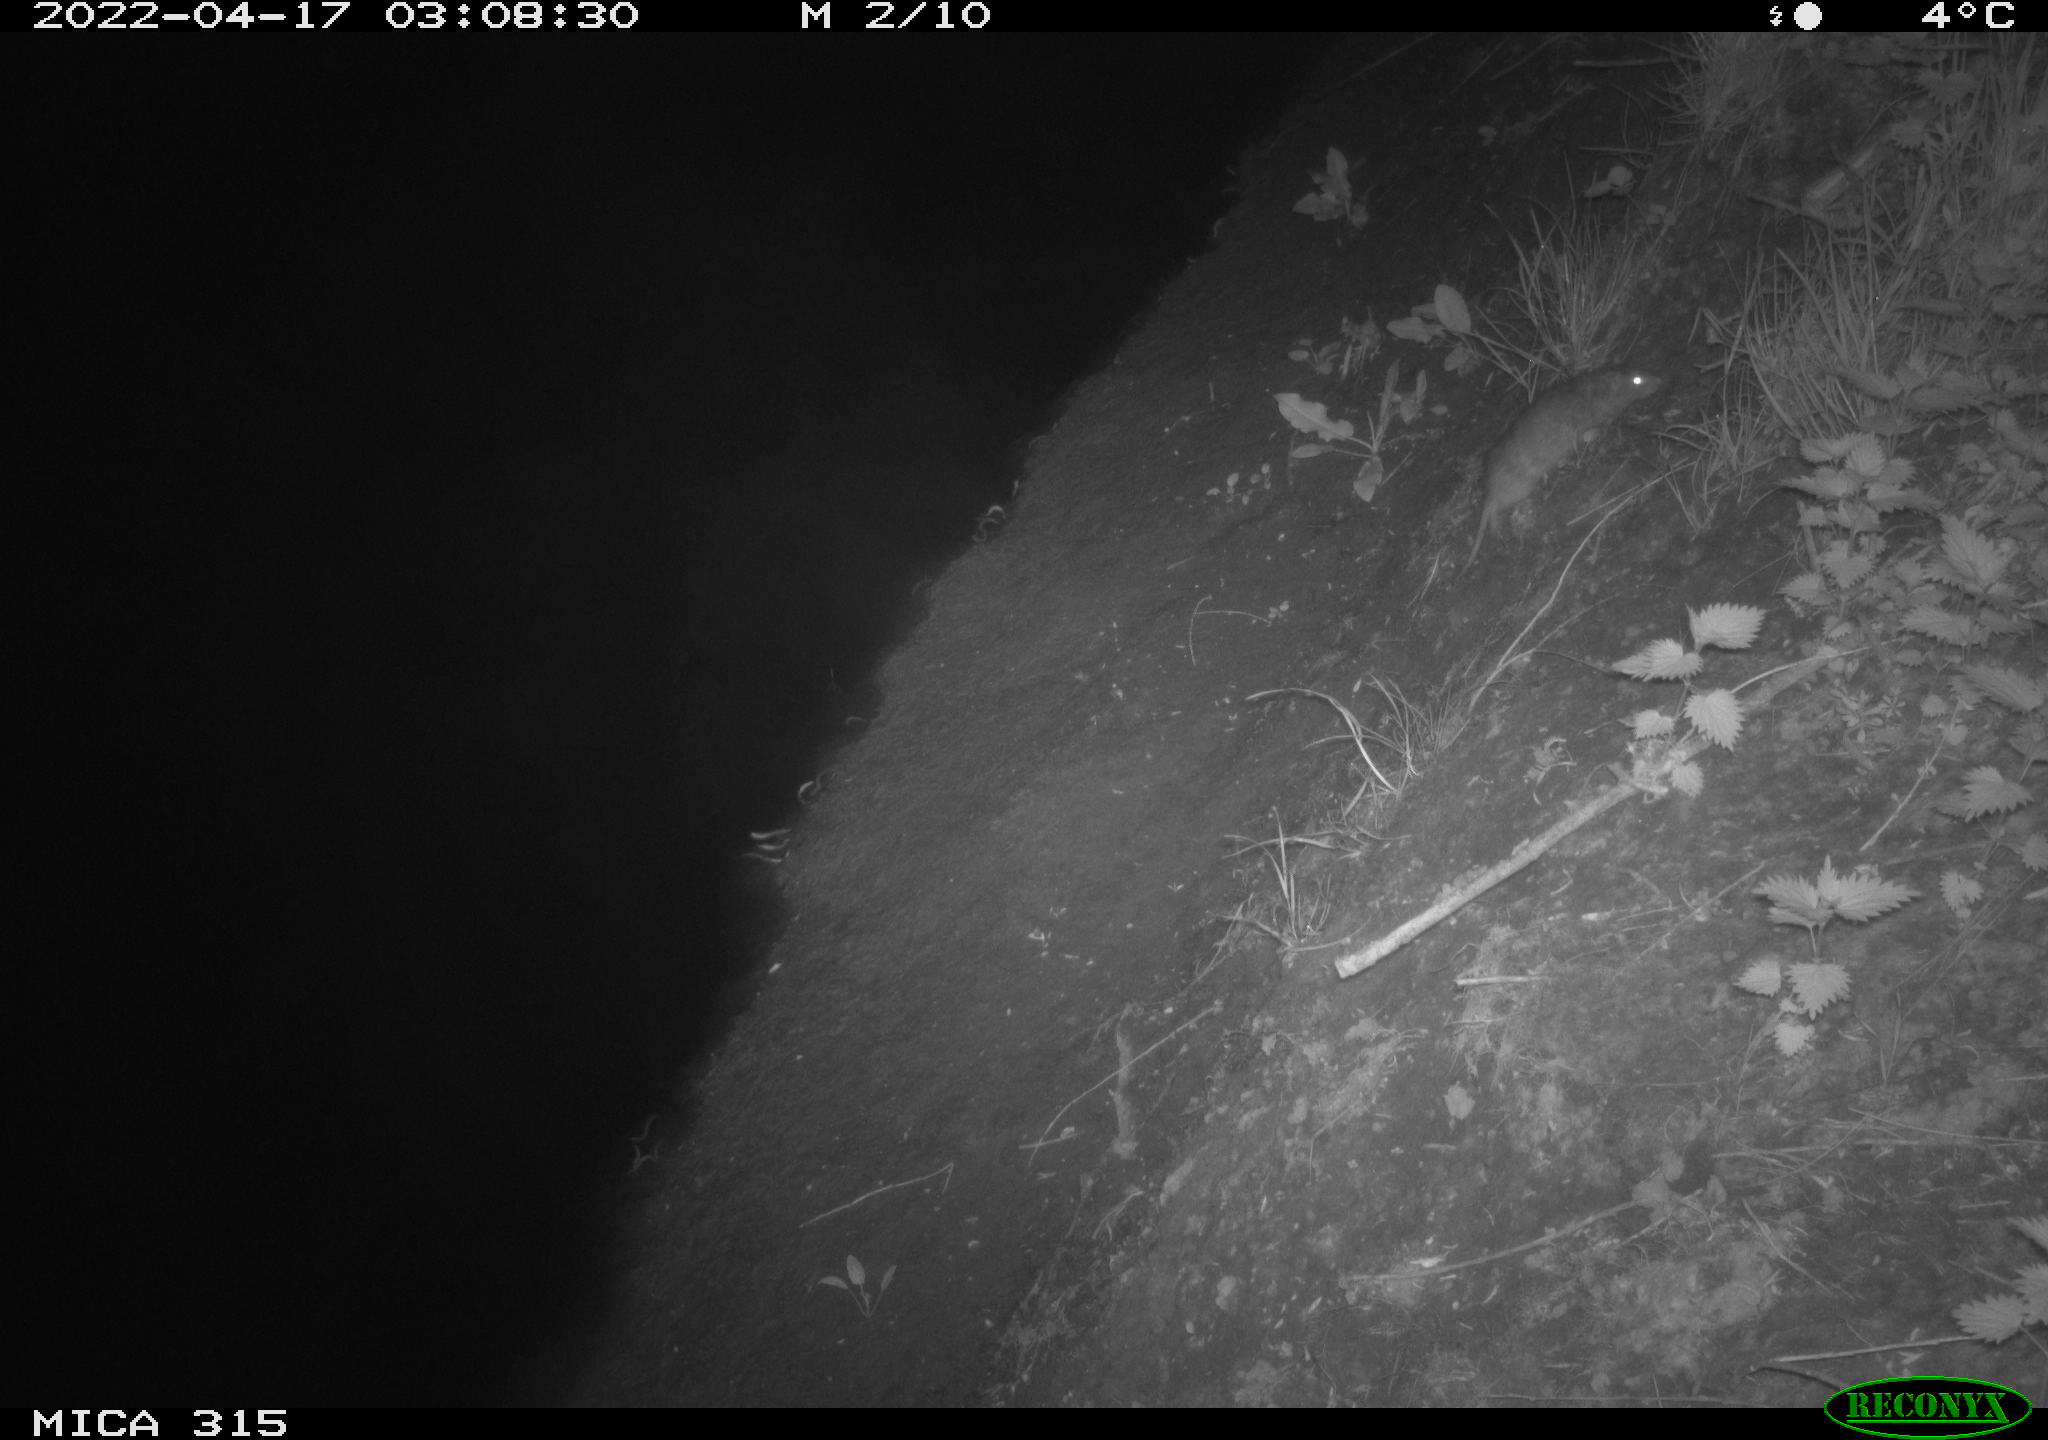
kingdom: Animalia
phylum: Chordata
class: Mammalia
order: Rodentia
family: Muridae
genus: Rattus
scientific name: Rattus norvegicus
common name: Brown rat
